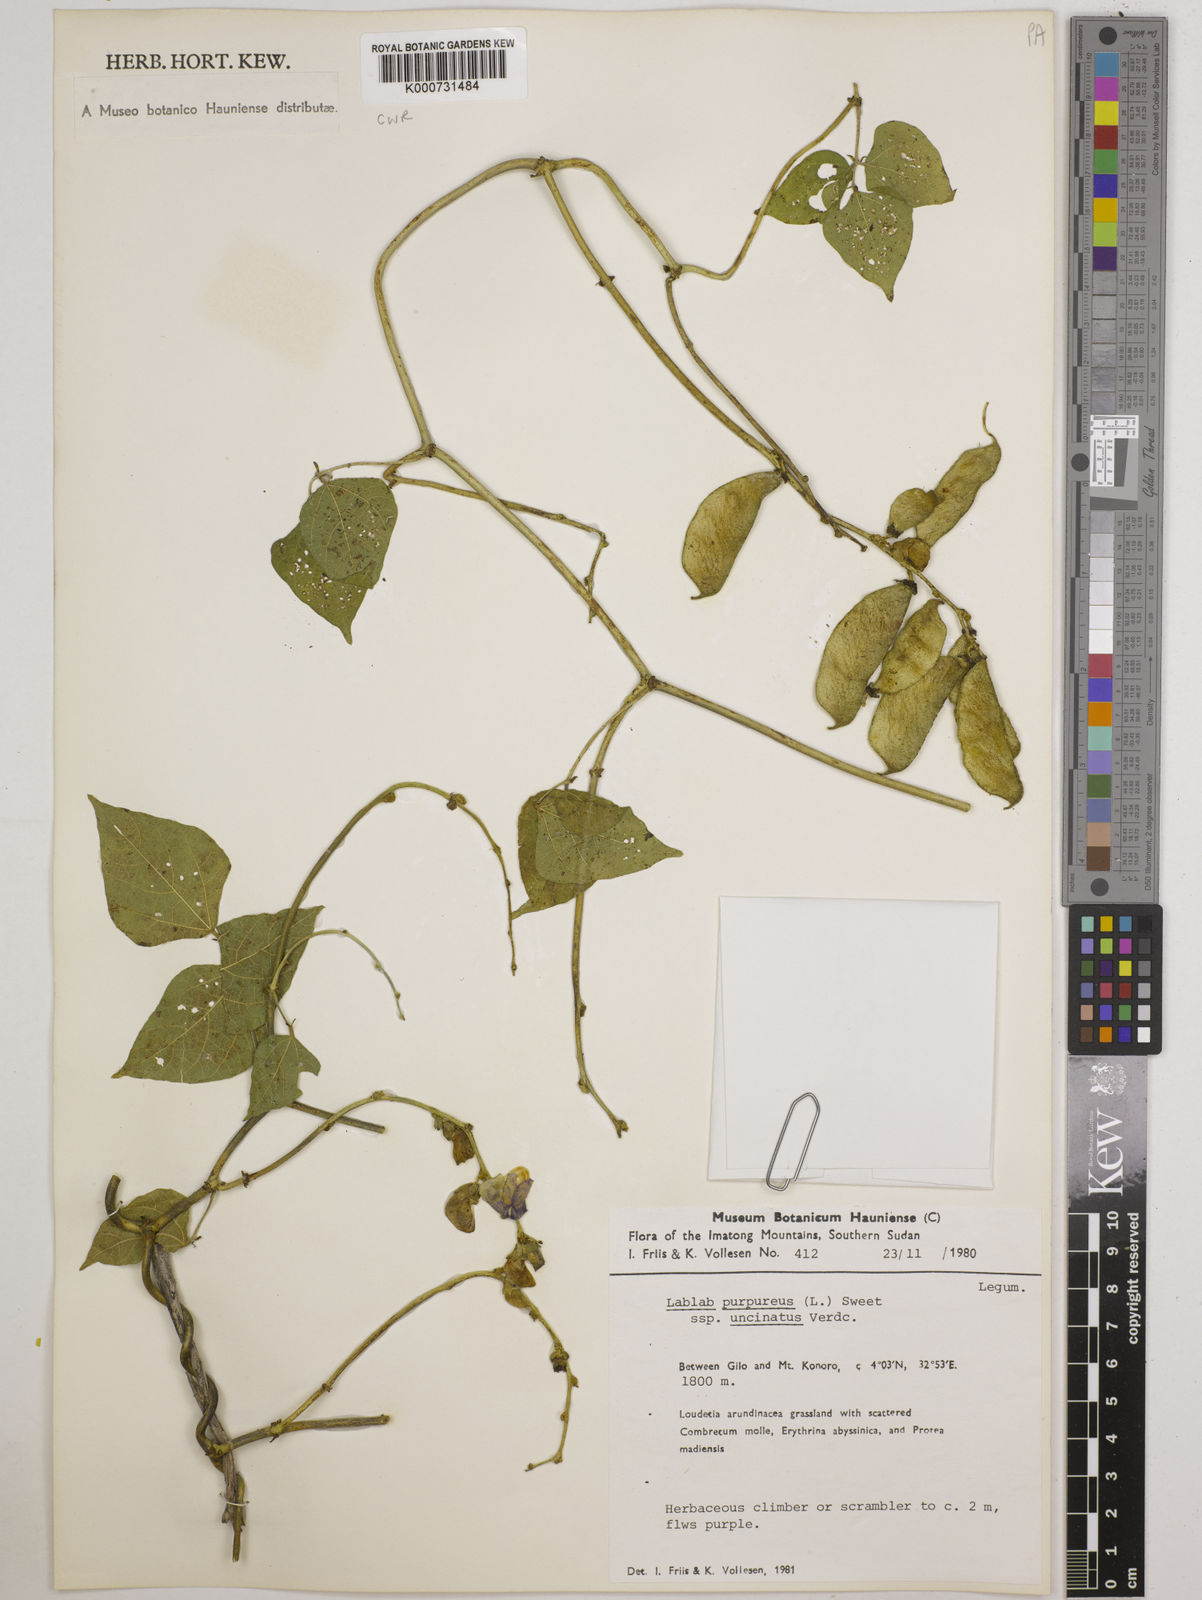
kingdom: Plantae
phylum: Tracheophyta
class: Magnoliopsida
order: Fabales
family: Fabaceae
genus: Lablab
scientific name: Lablab purpureus
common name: Lablab-bean
